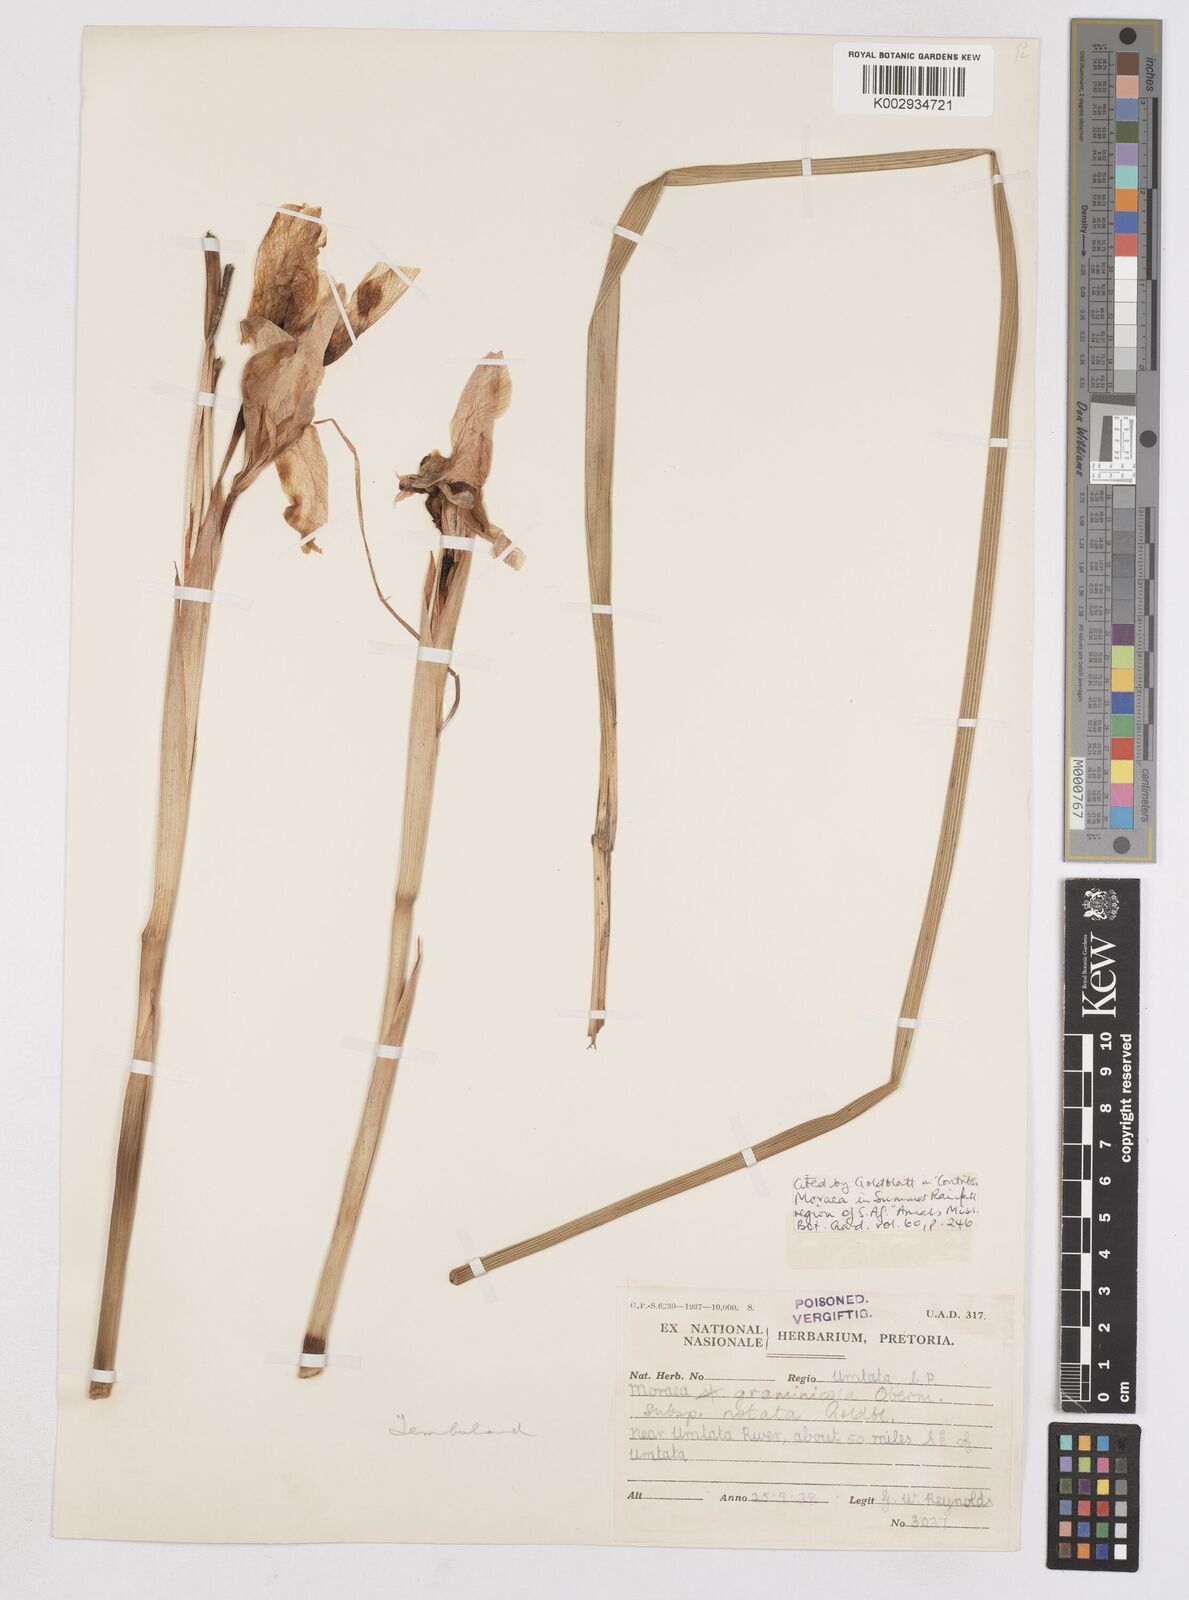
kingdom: Plantae
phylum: Tracheophyta
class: Liliopsida
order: Asparagales
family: Iridaceae
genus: Moraea
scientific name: Moraea graminicola
